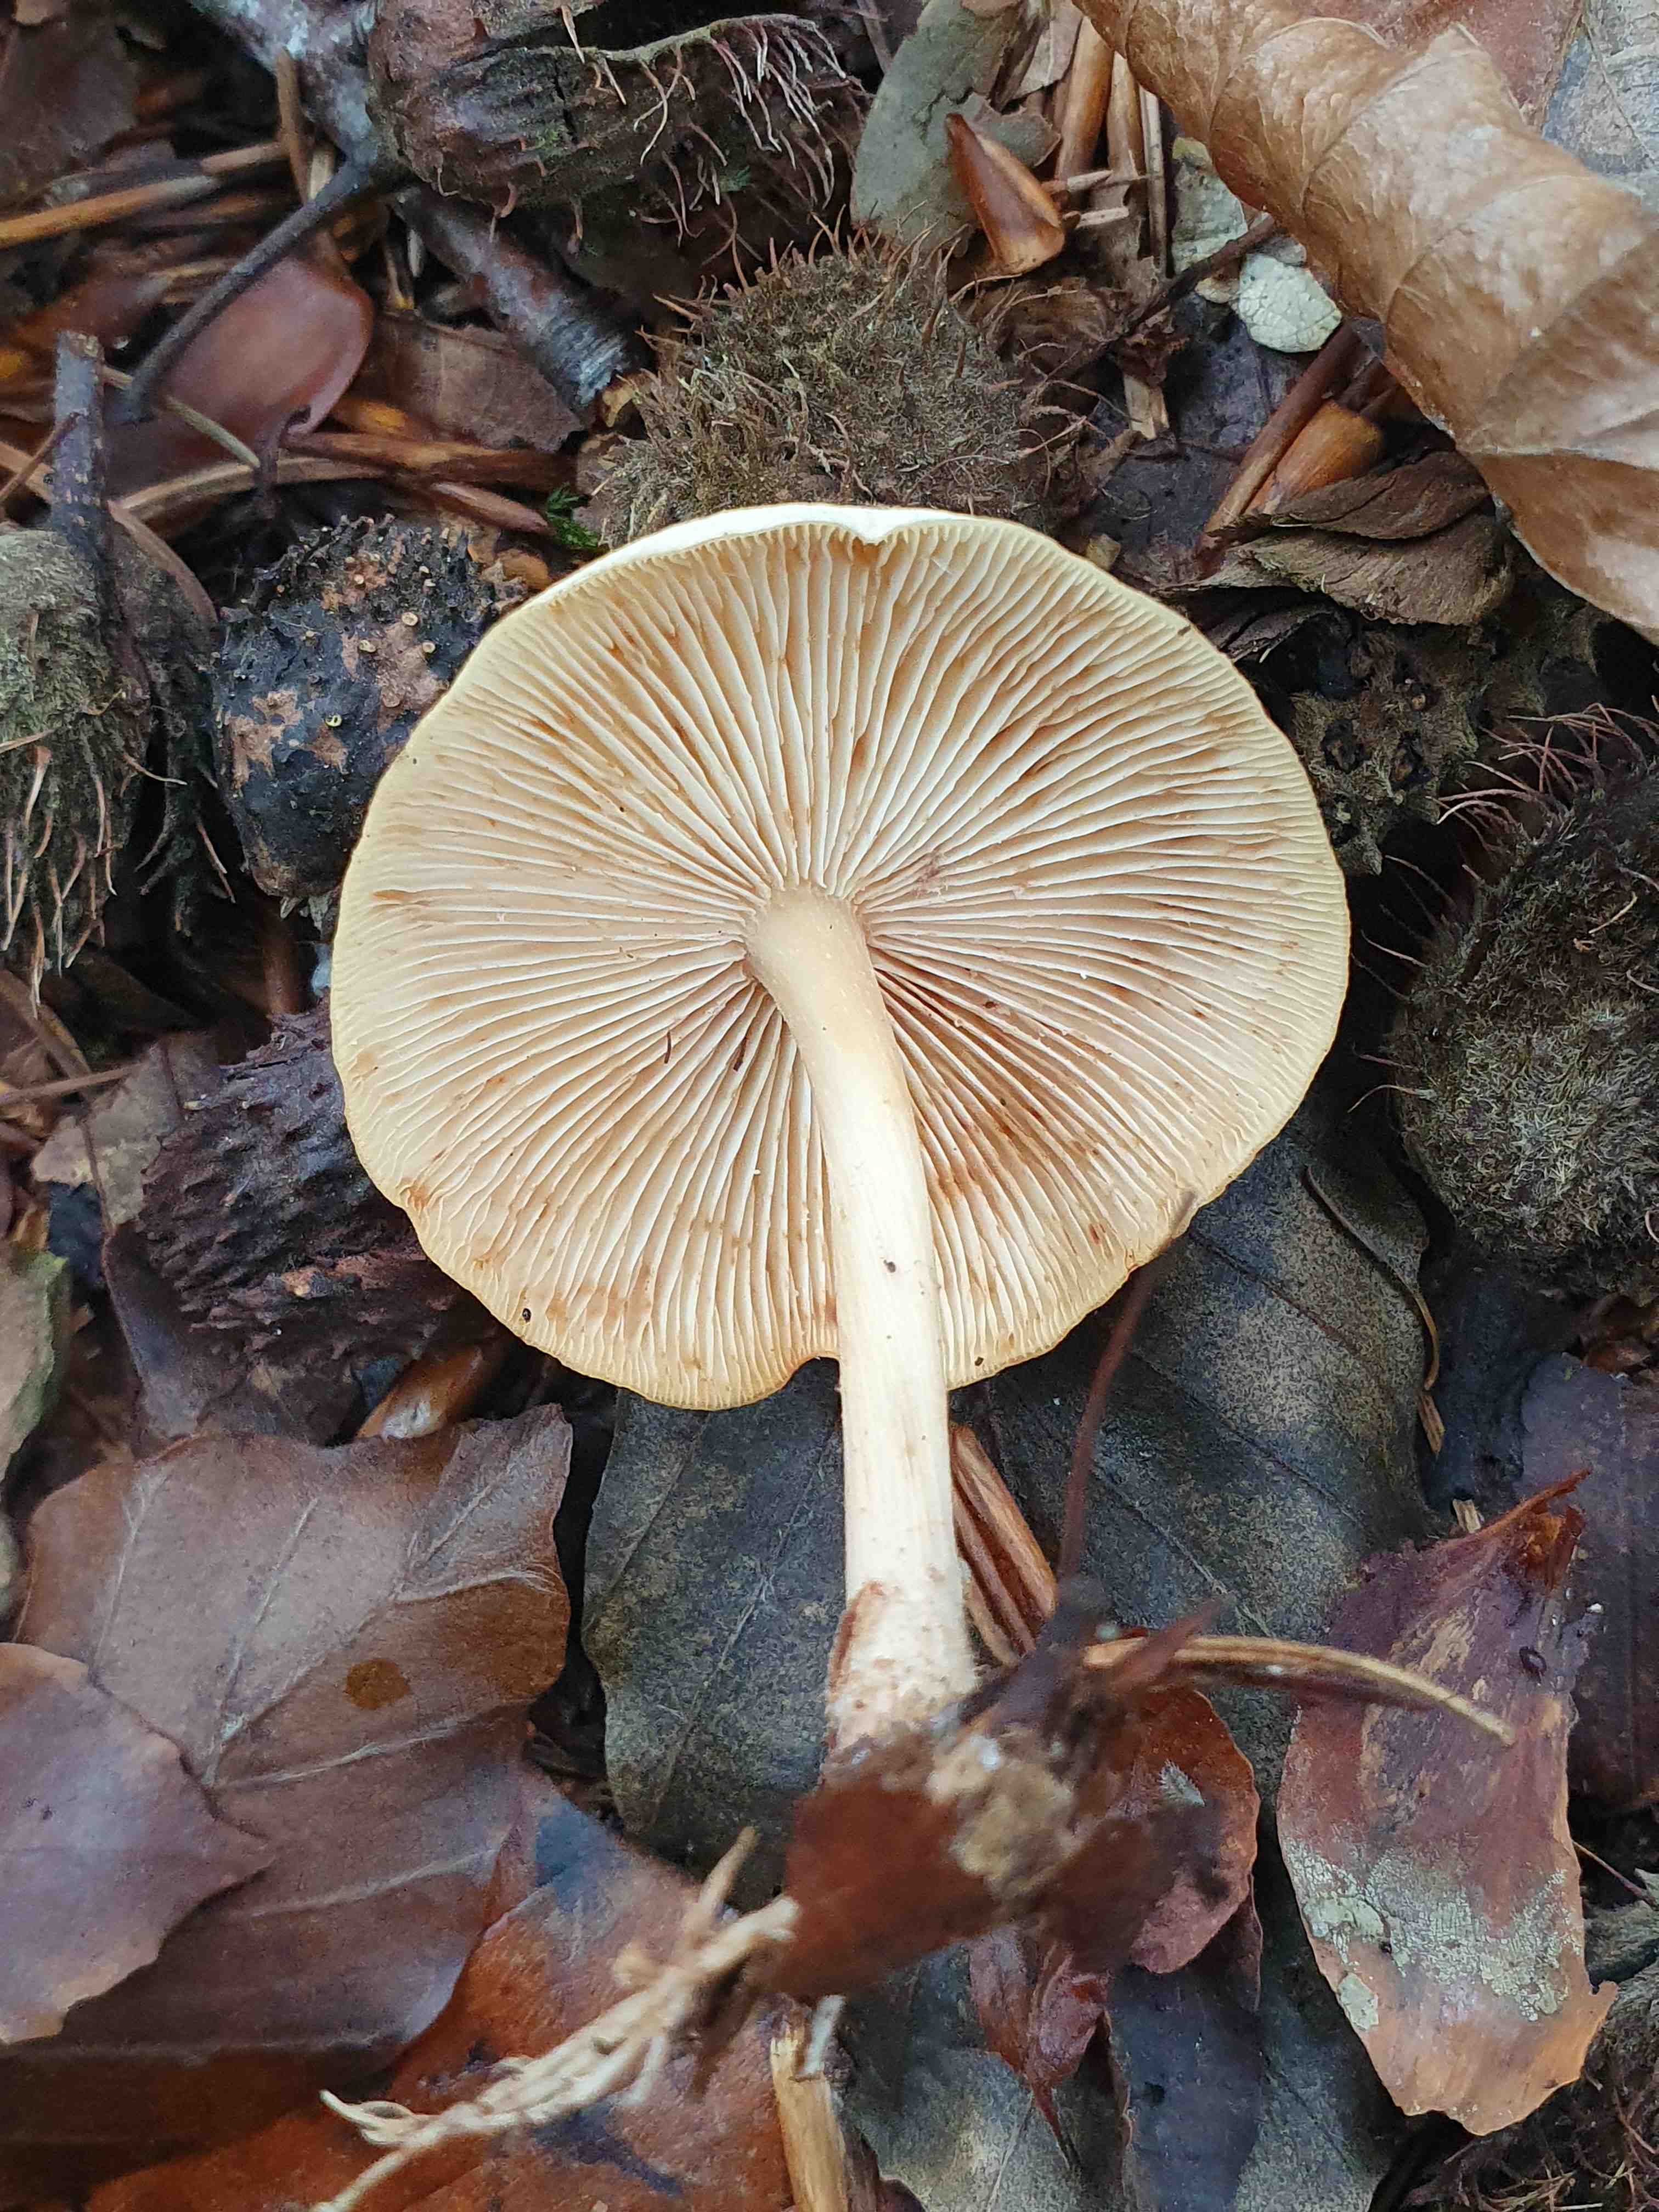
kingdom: Fungi
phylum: Basidiomycota
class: Agaricomycetes
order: Agaricales
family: Omphalotaceae
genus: Gymnopus
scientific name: Gymnopus dryophilus
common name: løv-fladhat
